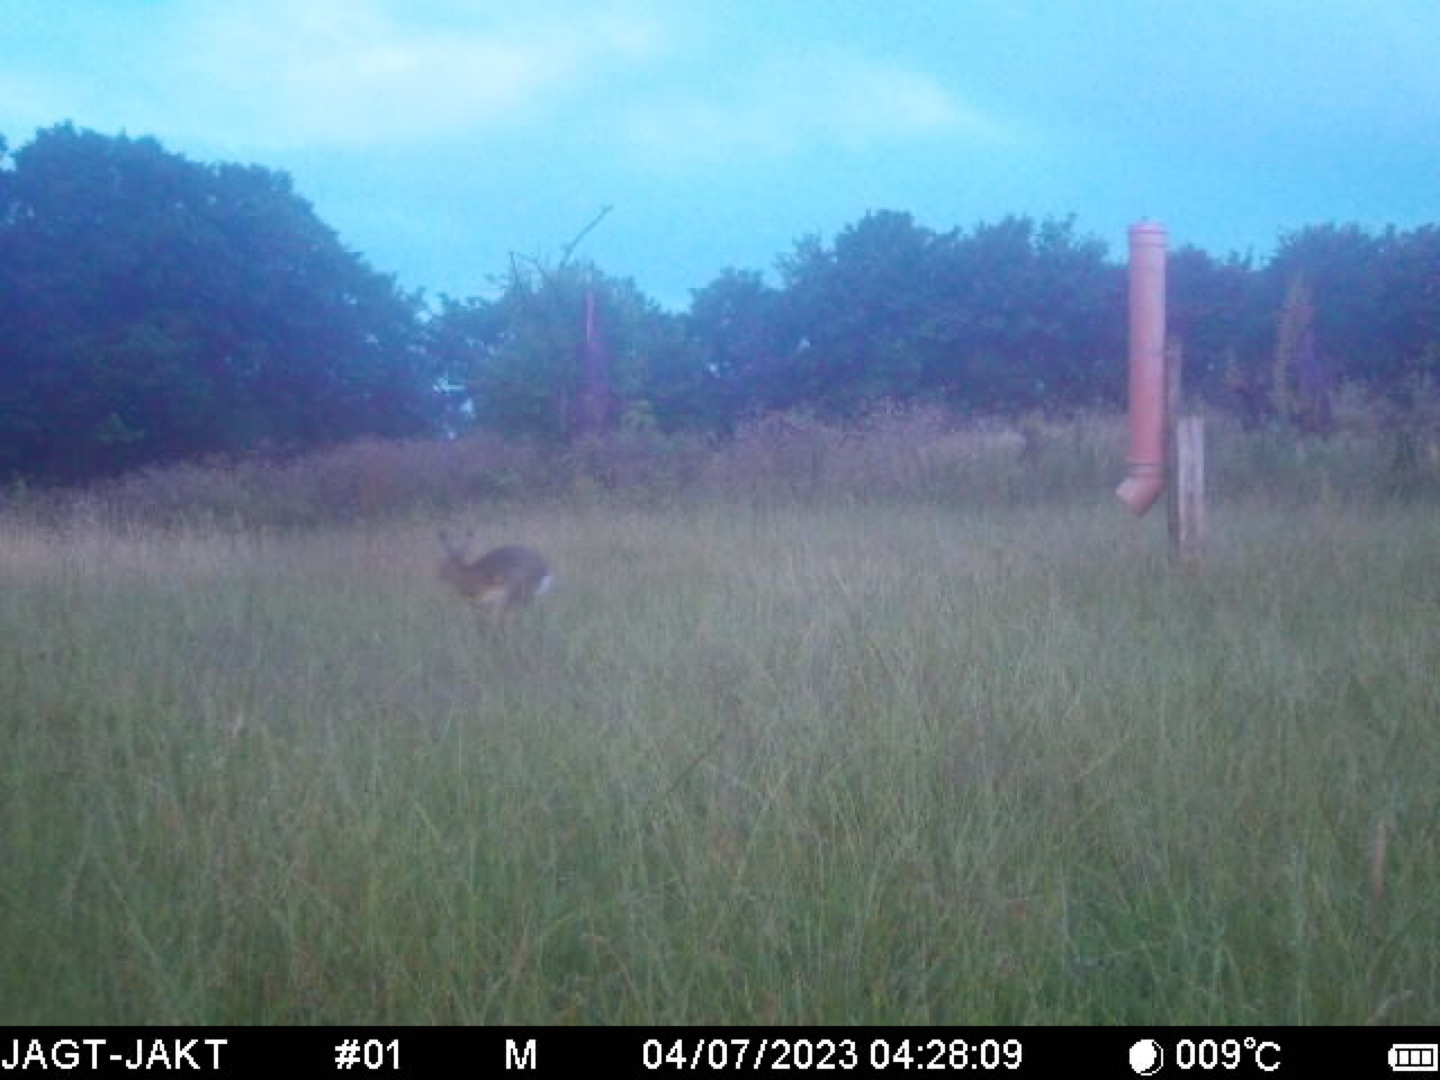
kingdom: Animalia
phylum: Chordata
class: Mammalia
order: Lagomorpha
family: Leporidae
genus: Lepus
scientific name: Lepus europaeus
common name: Hare
